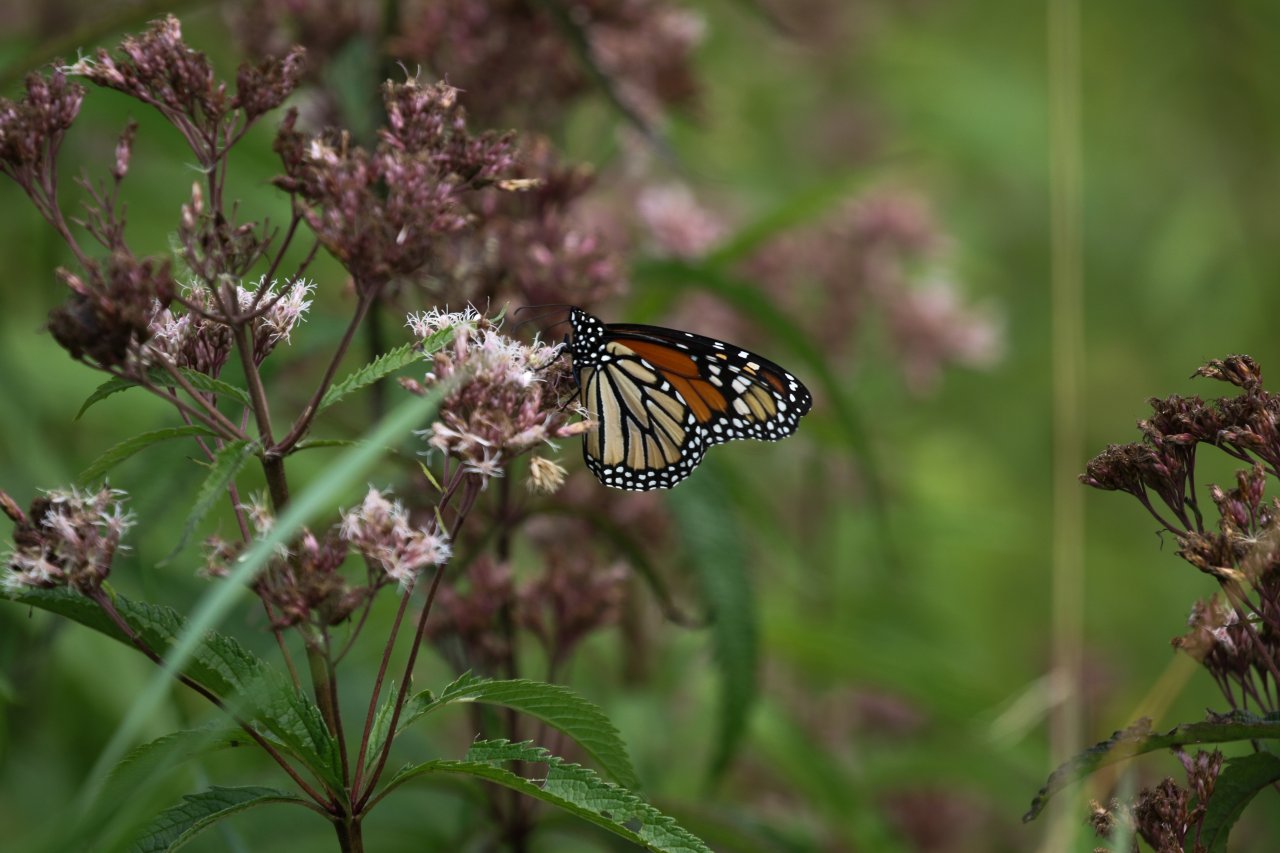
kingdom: Animalia
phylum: Arthropoda
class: Insecta
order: Lepidoptera
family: Nymphalidae
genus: Danaus
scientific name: Danaus plexippus
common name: Monarch
